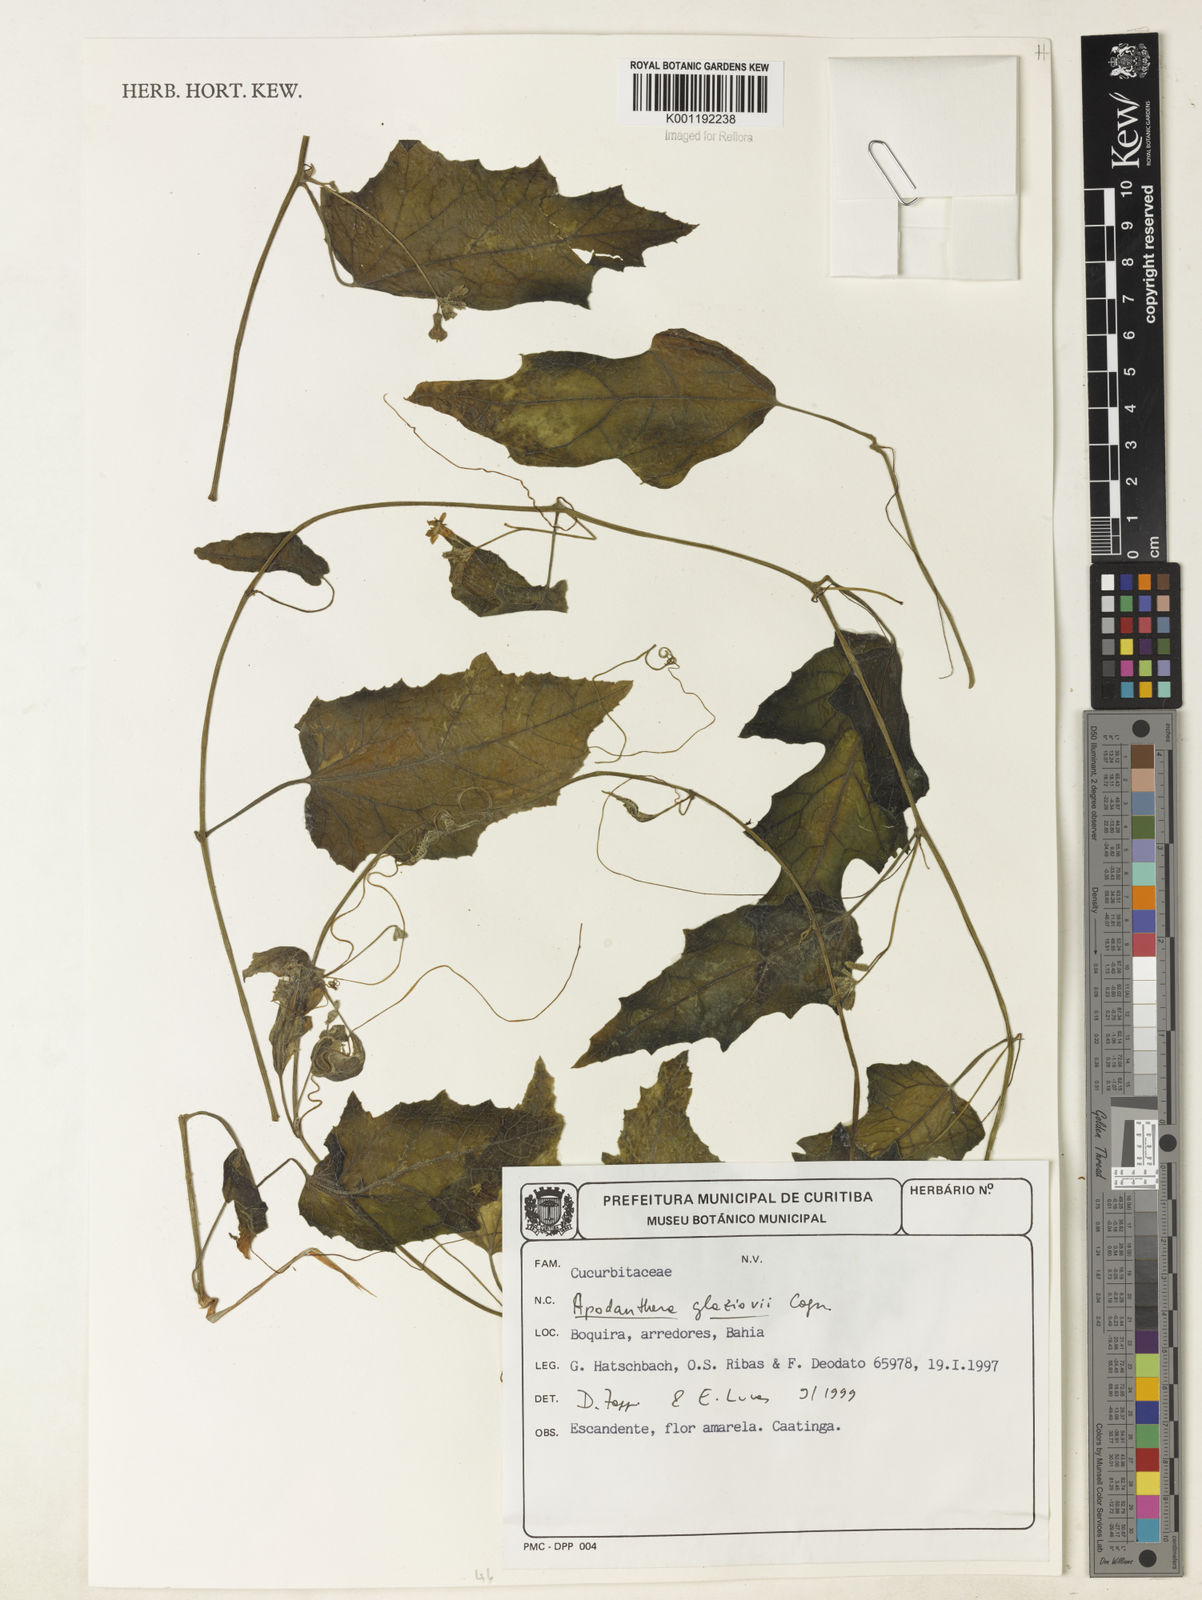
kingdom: Plantae
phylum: Tracheophyta
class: Magnoliopsida
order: Cucurbitales
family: Cucurbitaceae
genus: Apodanthera
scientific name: Apodanthera glaziovii
